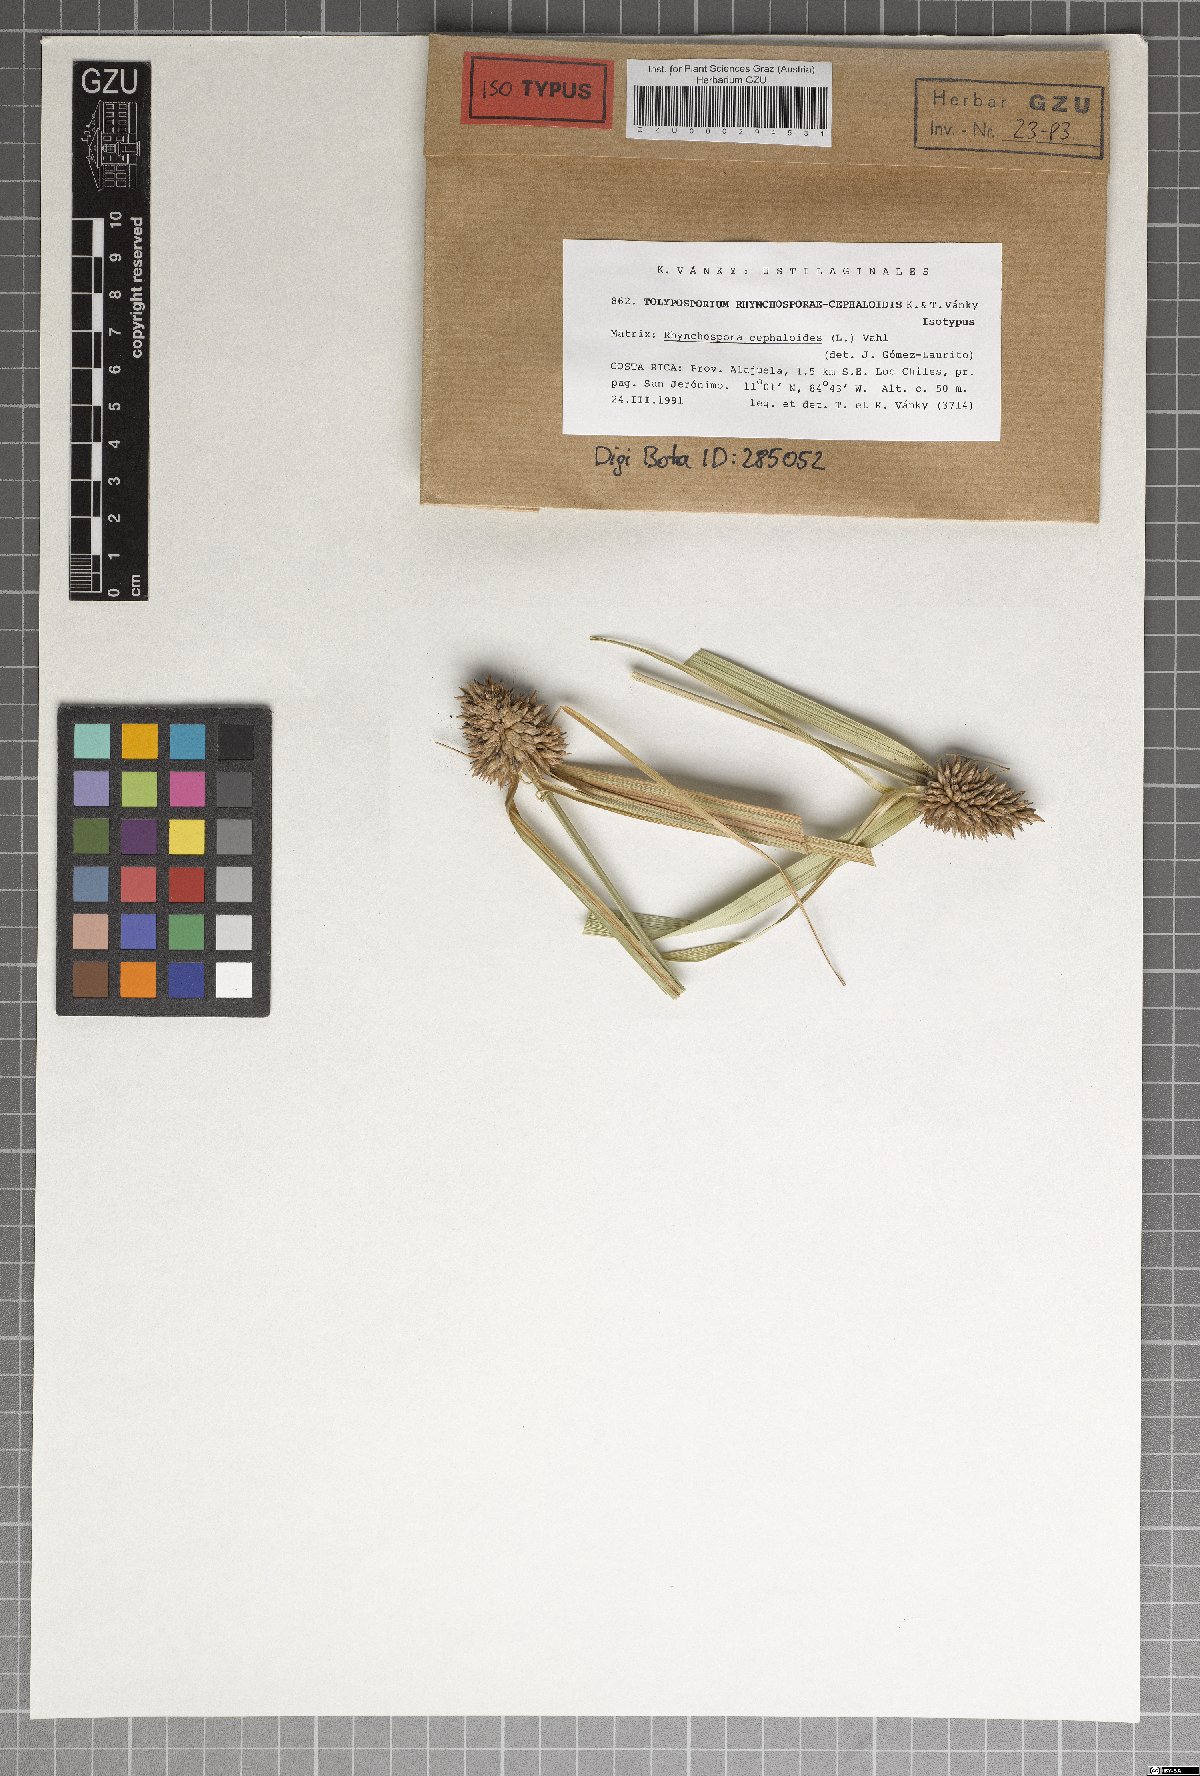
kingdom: Fungi
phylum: Basidiomycota
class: Ustilaginomycetes
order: Ustilaginales
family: Anthracoideaceae
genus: Moreaua
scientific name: Moreaua rhynchosporae-cephalotis
